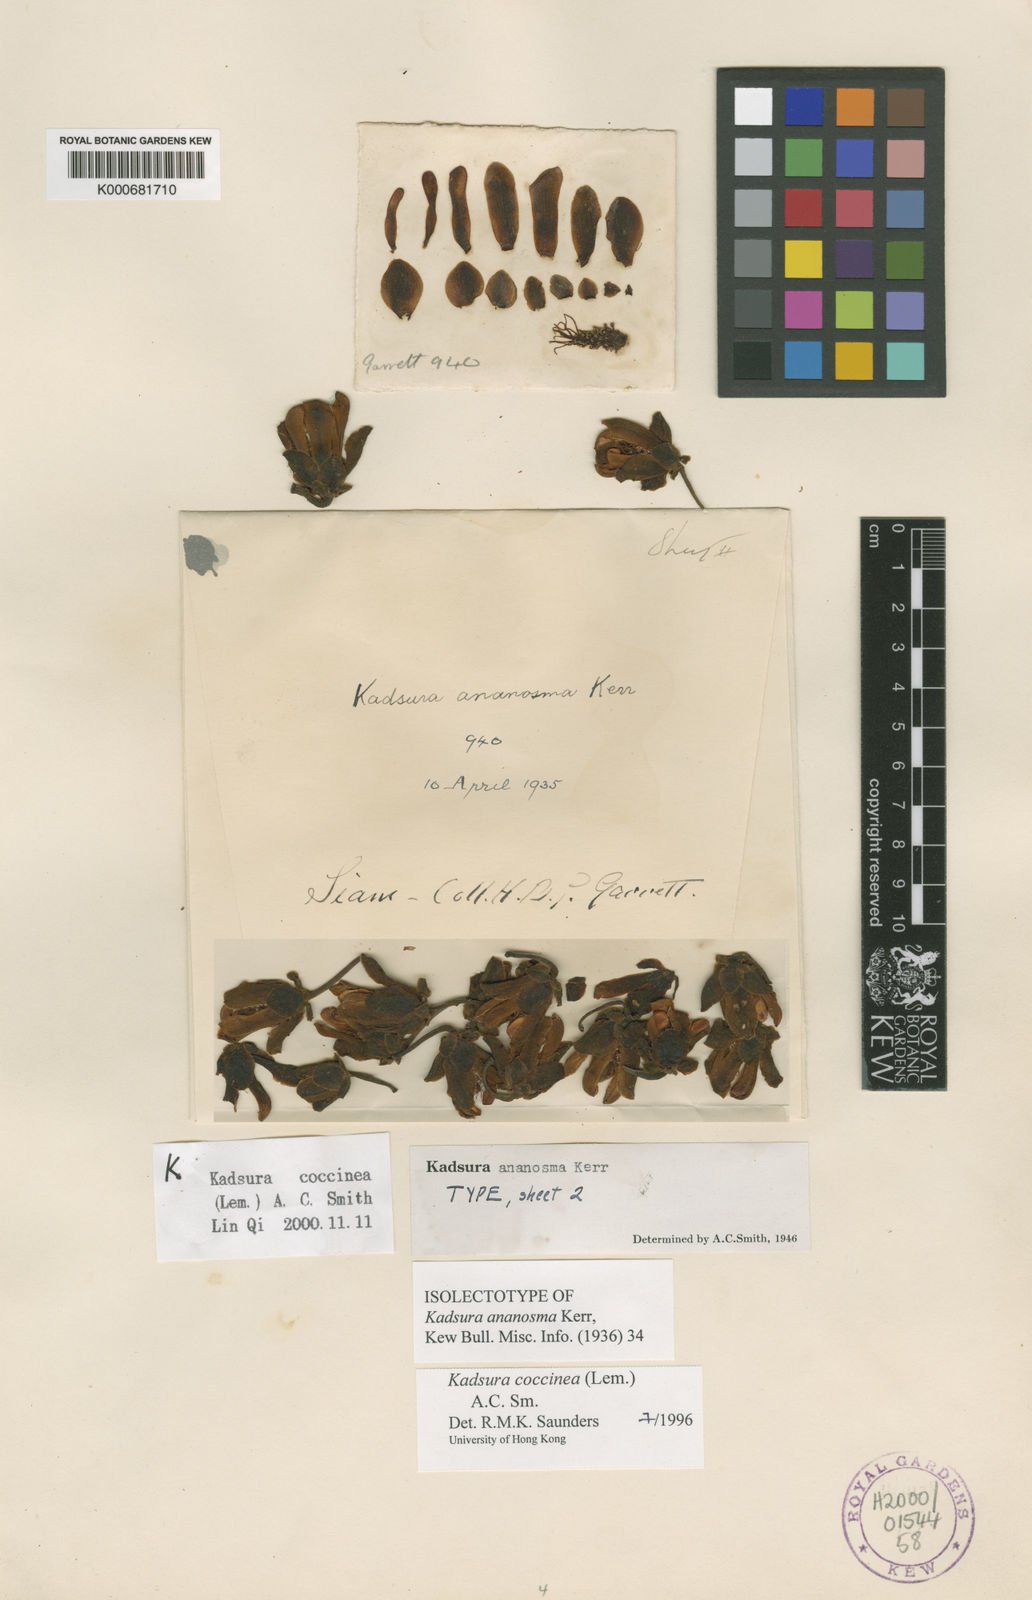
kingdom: Plantae
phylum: Tracheophyta
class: Magnoliopsida
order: Austrobaileyales
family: Schisandraceae
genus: Kadsura
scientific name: Kadsura coccinea
